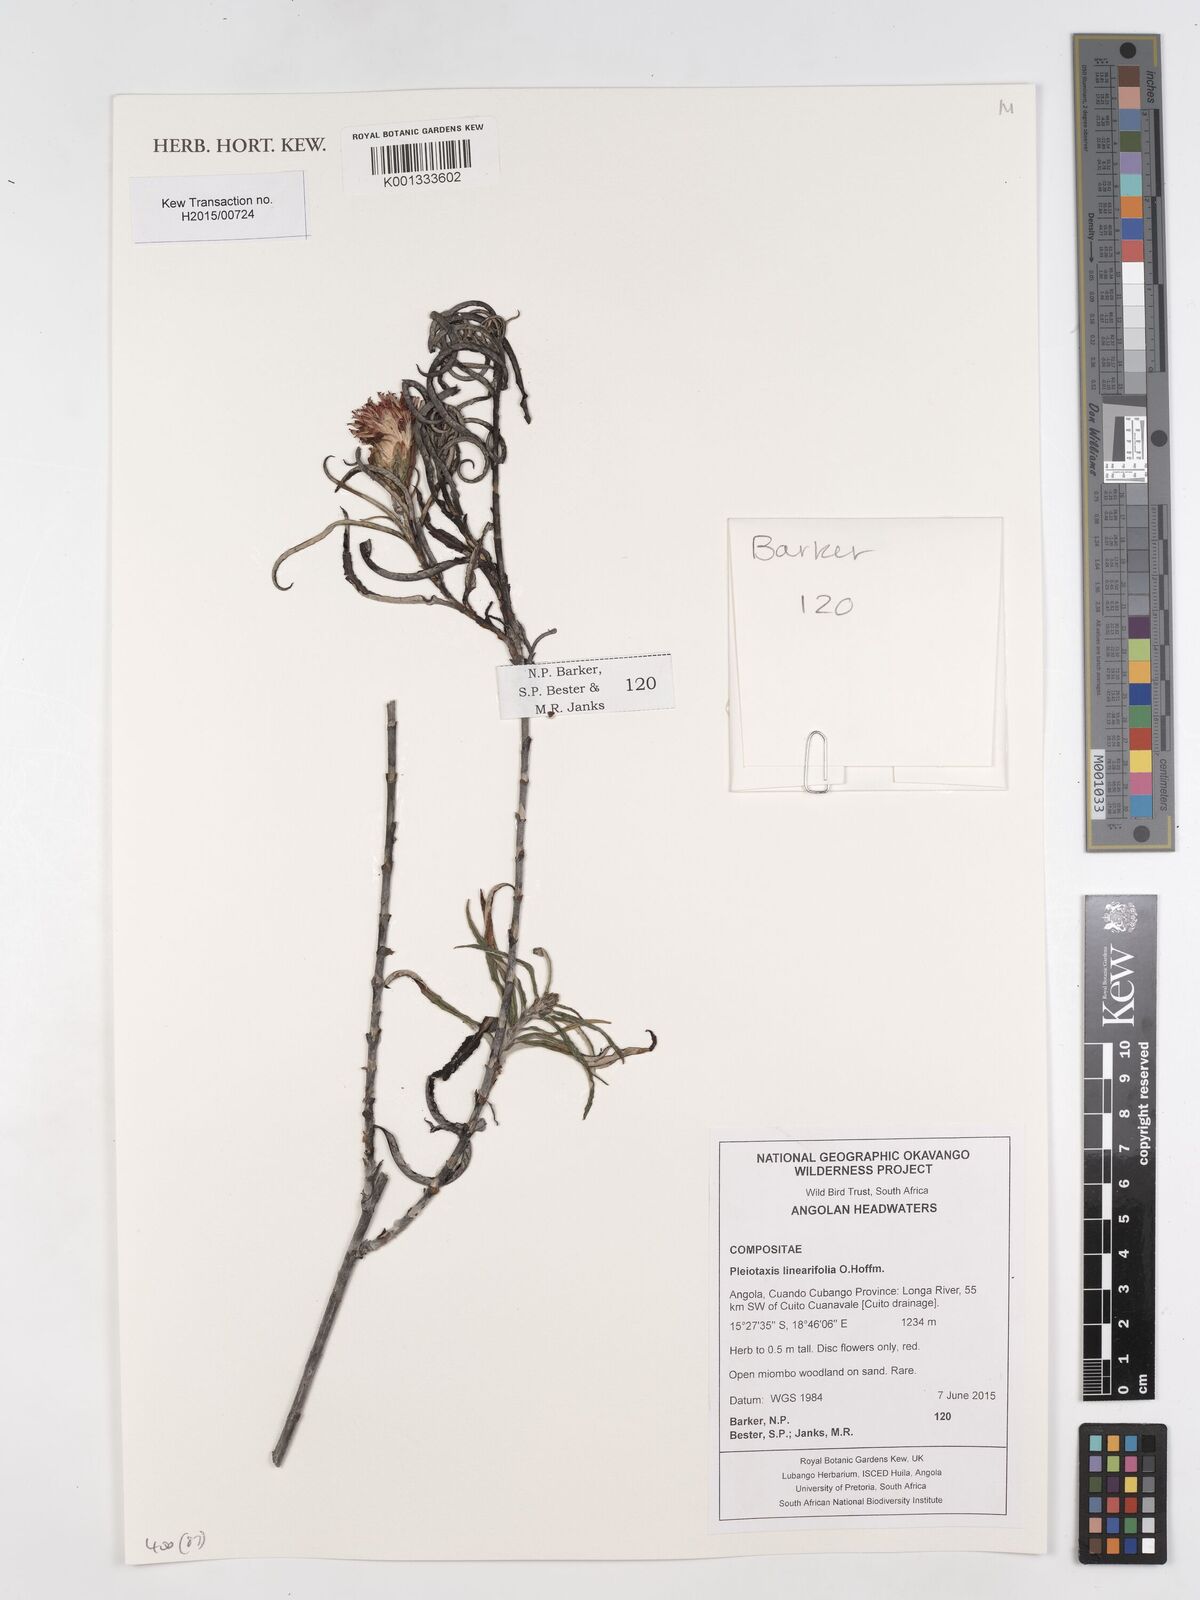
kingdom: Plantae
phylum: Tracheophyta
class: Magnoliopsida
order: Asterales
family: Asteraceae
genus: Pleiotaxis
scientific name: Pleiotaxis linearifolia
